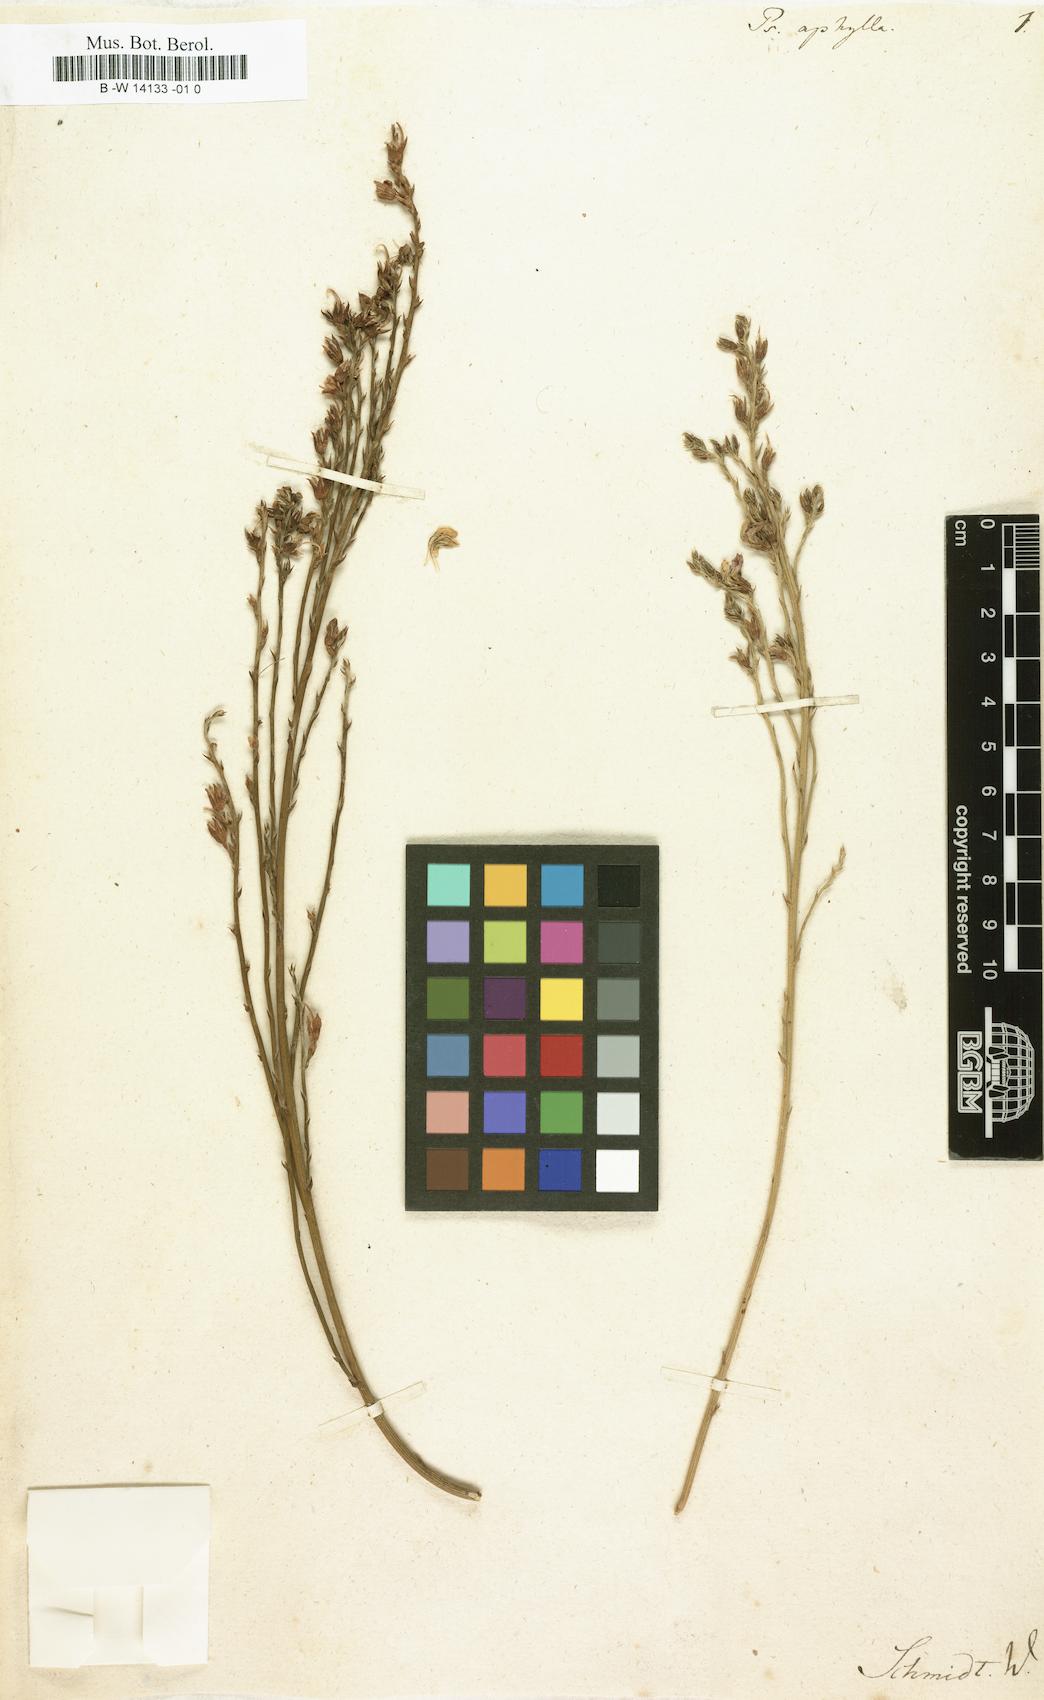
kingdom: Plantae
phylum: Tracheophyta
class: Magnoliopsida
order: Fabales
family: Fabaceae
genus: Psoralea
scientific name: Psoralea aphylla
